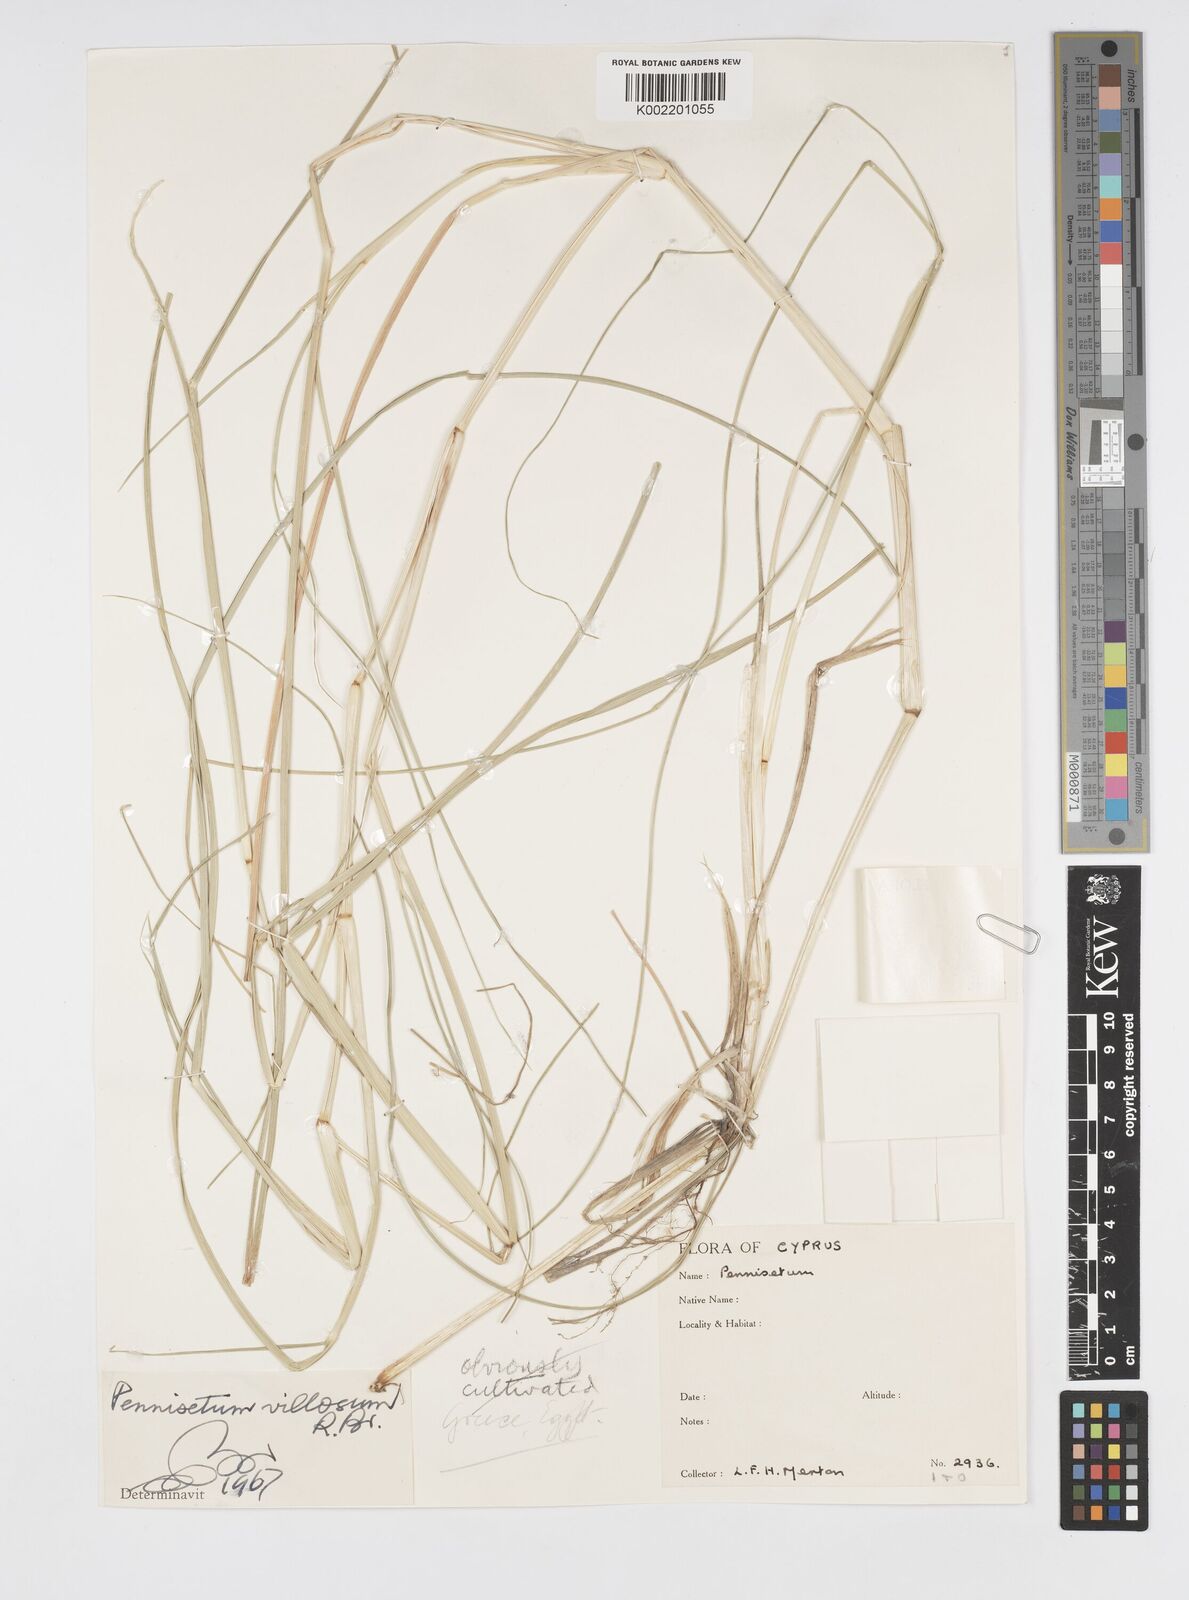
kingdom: Plantae
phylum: Tracheophyta
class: Liliopsida
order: Poales
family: Poaceae
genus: Cenchrus
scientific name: Cenchrus longisetus
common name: Feathertop
